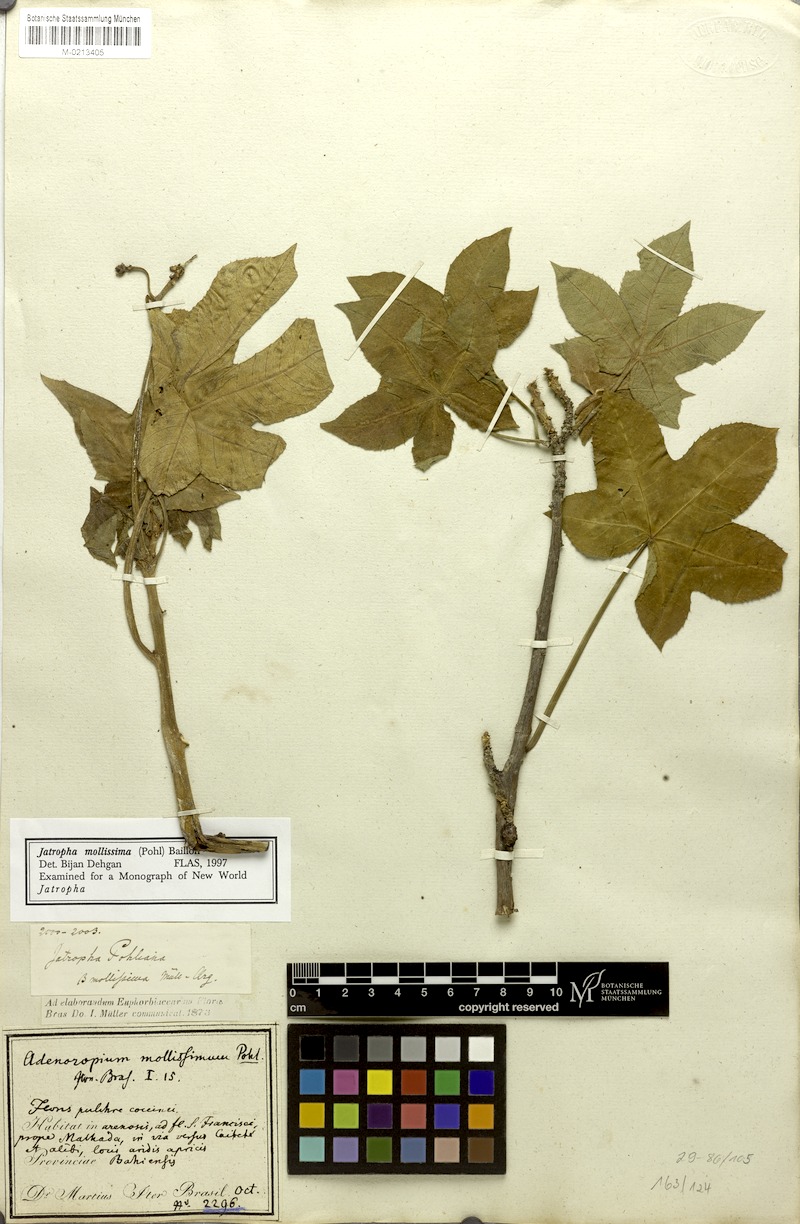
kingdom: Plantae
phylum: Tracheophyta
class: Magnoliopsida
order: Malpighiales
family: Euphorbiaceae
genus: Jatropha
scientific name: Jatropha mollissima
